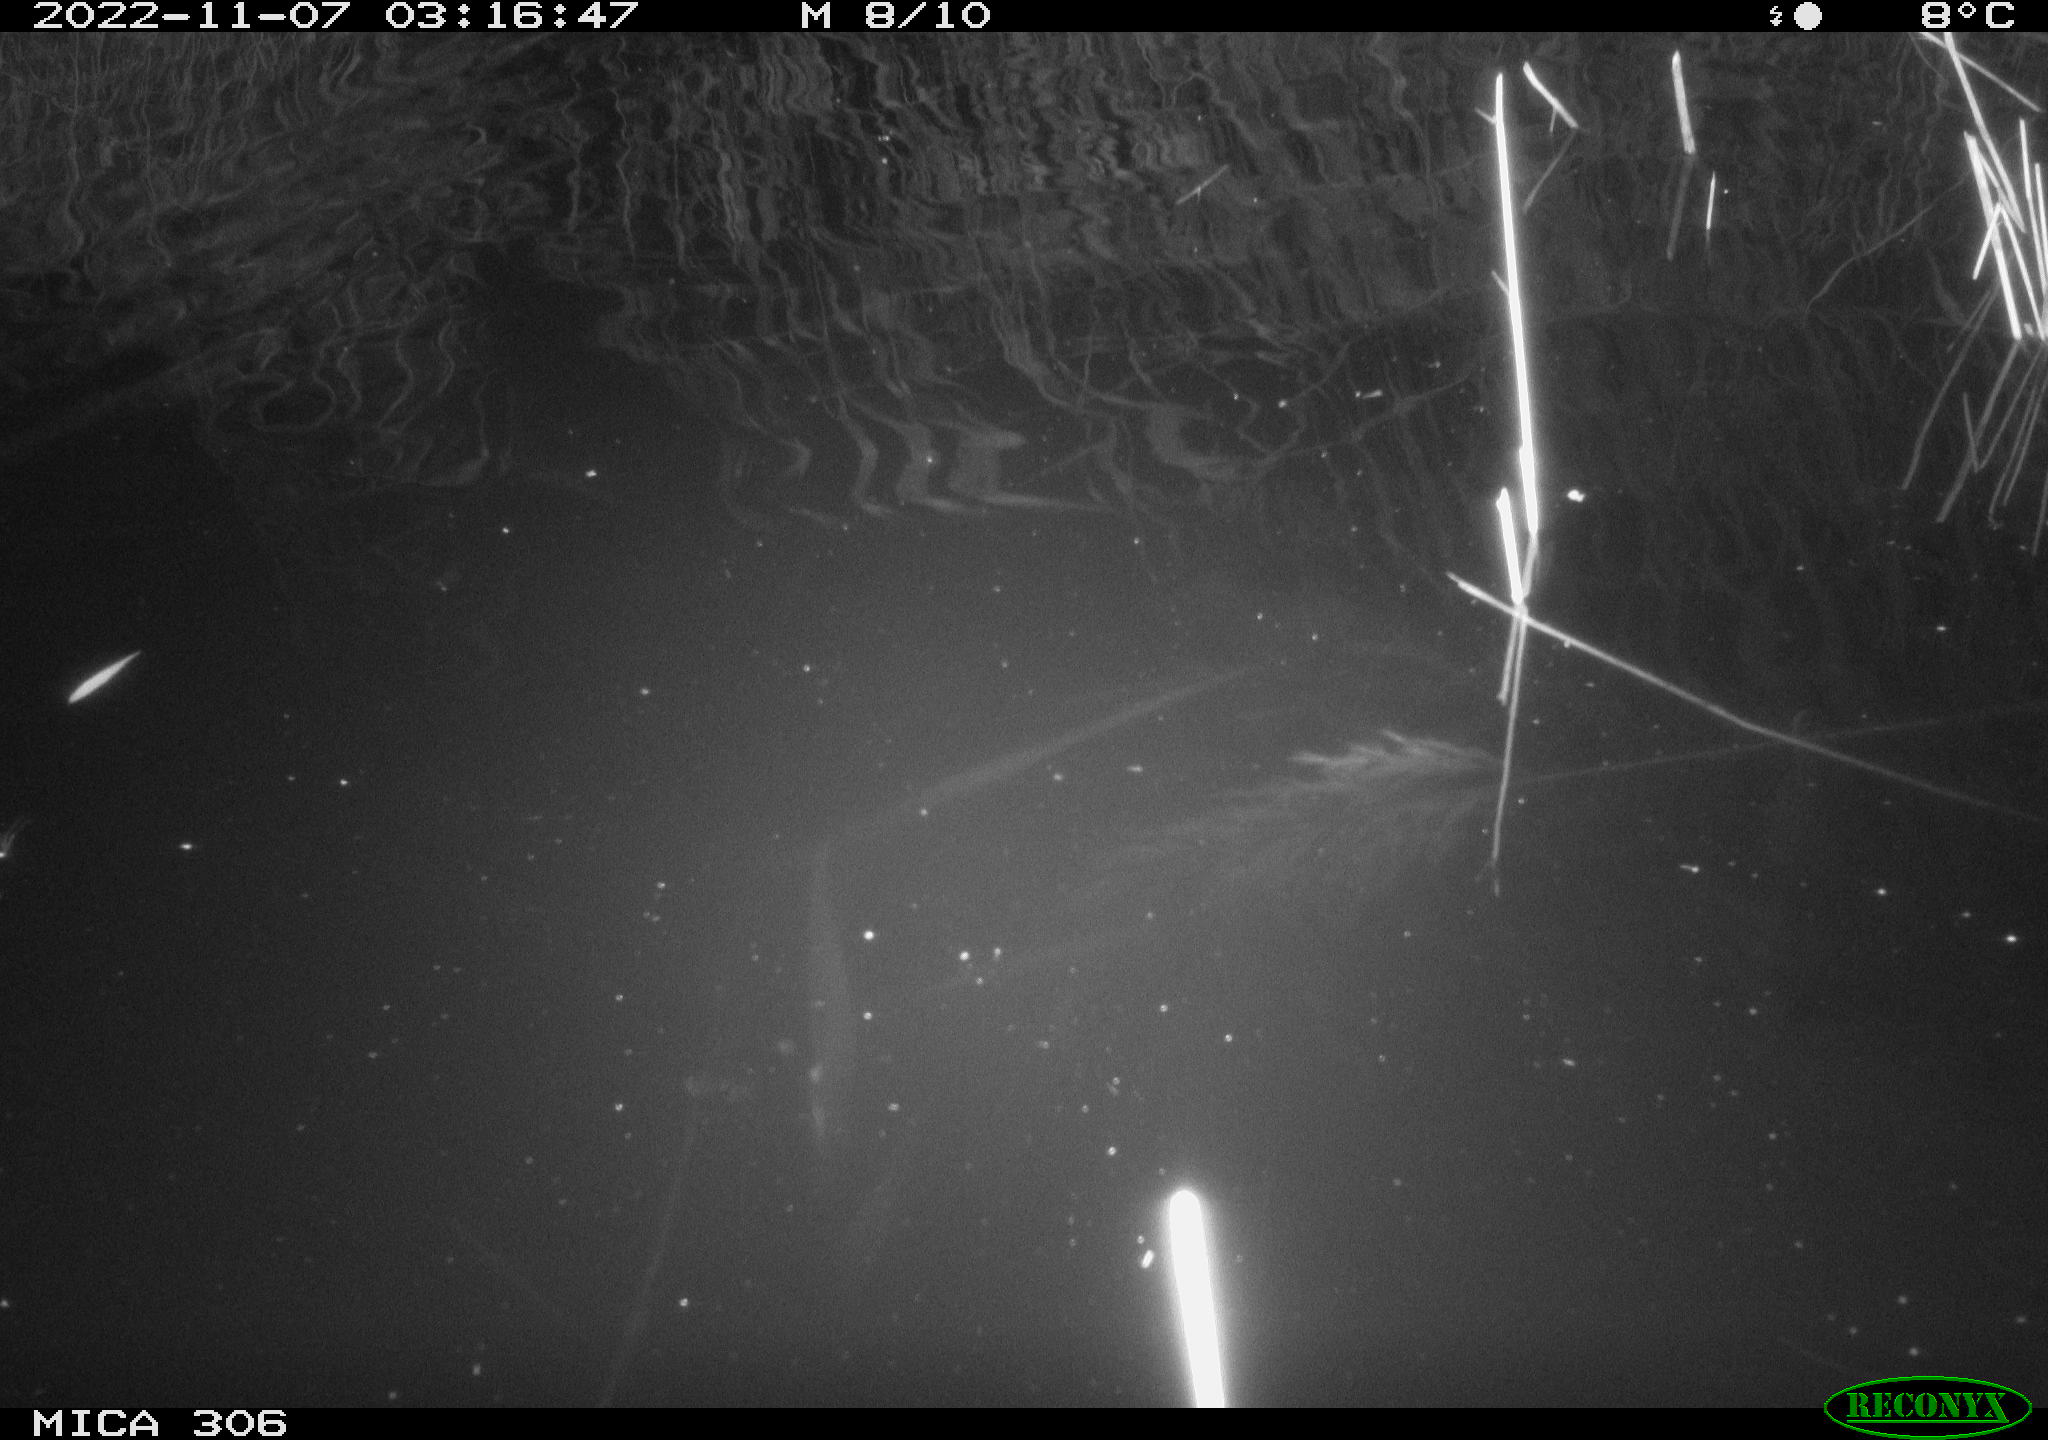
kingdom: Animalia
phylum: Chordata
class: Mammalia
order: Rodentia
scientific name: Rodentia
